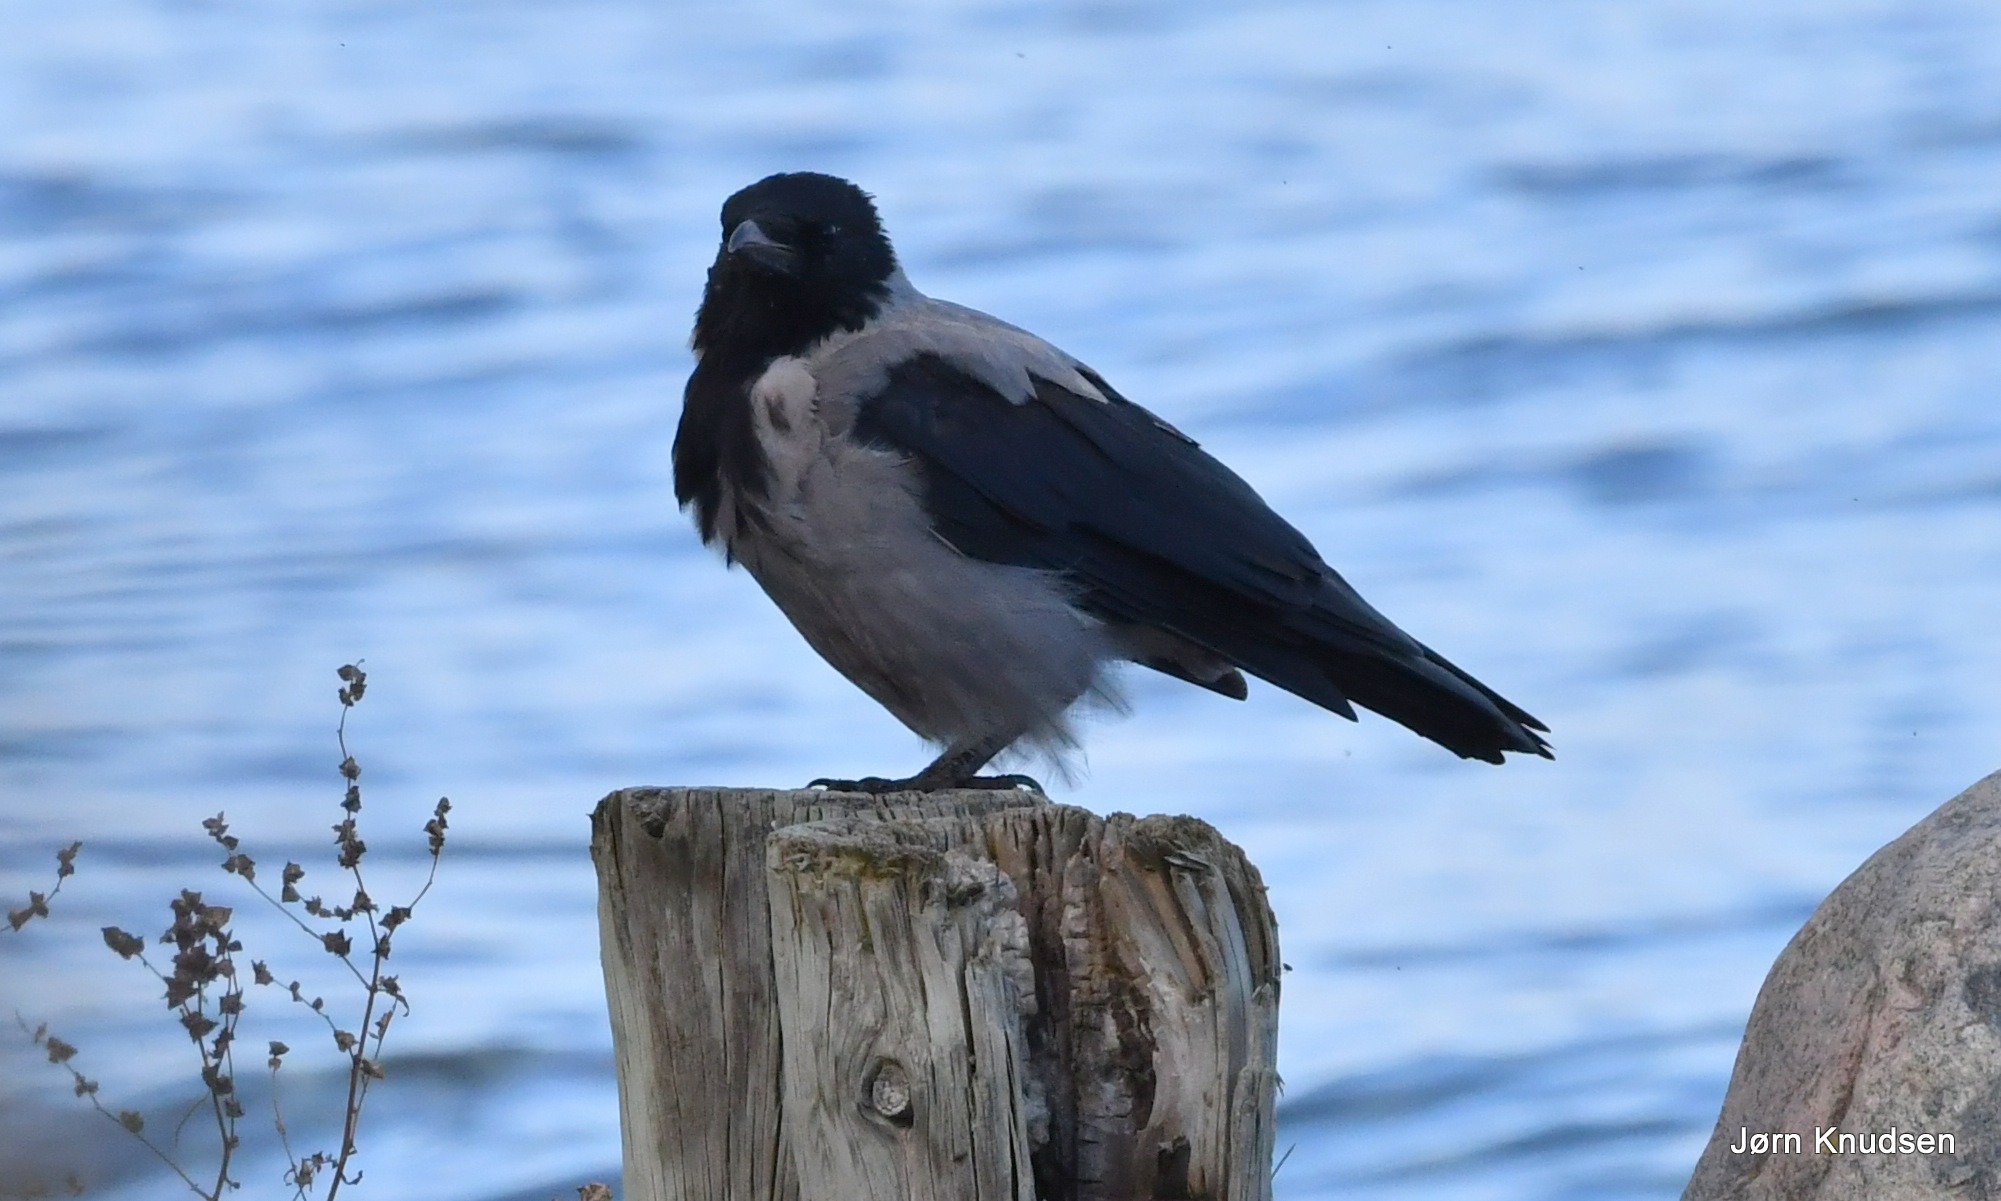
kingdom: Animalia
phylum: Chordata
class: Aves
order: Passeriformes
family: Corvidae
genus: Corvus
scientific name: Corvus cornix
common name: Gråkrage
